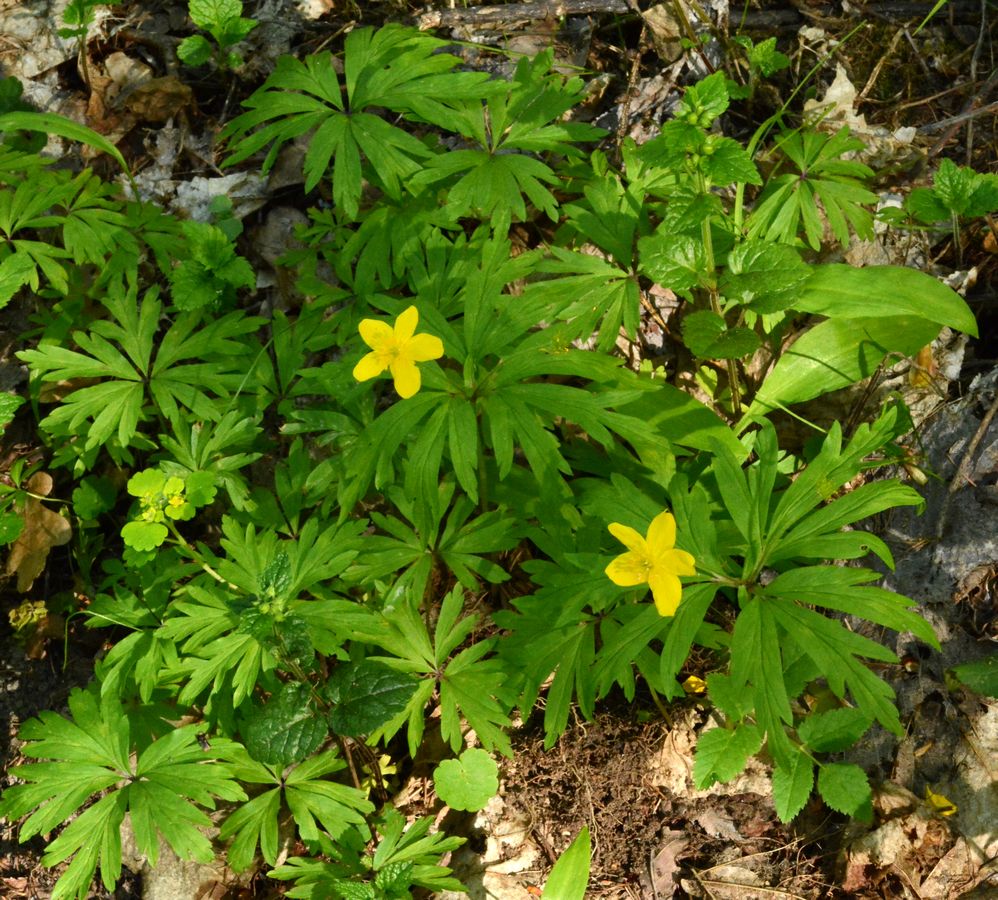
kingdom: Plantae
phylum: Tracheophyta
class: Magnoliopsida
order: Ranunculales
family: Ranunculaceae
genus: Anemone
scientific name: Anemone ranunculoides
